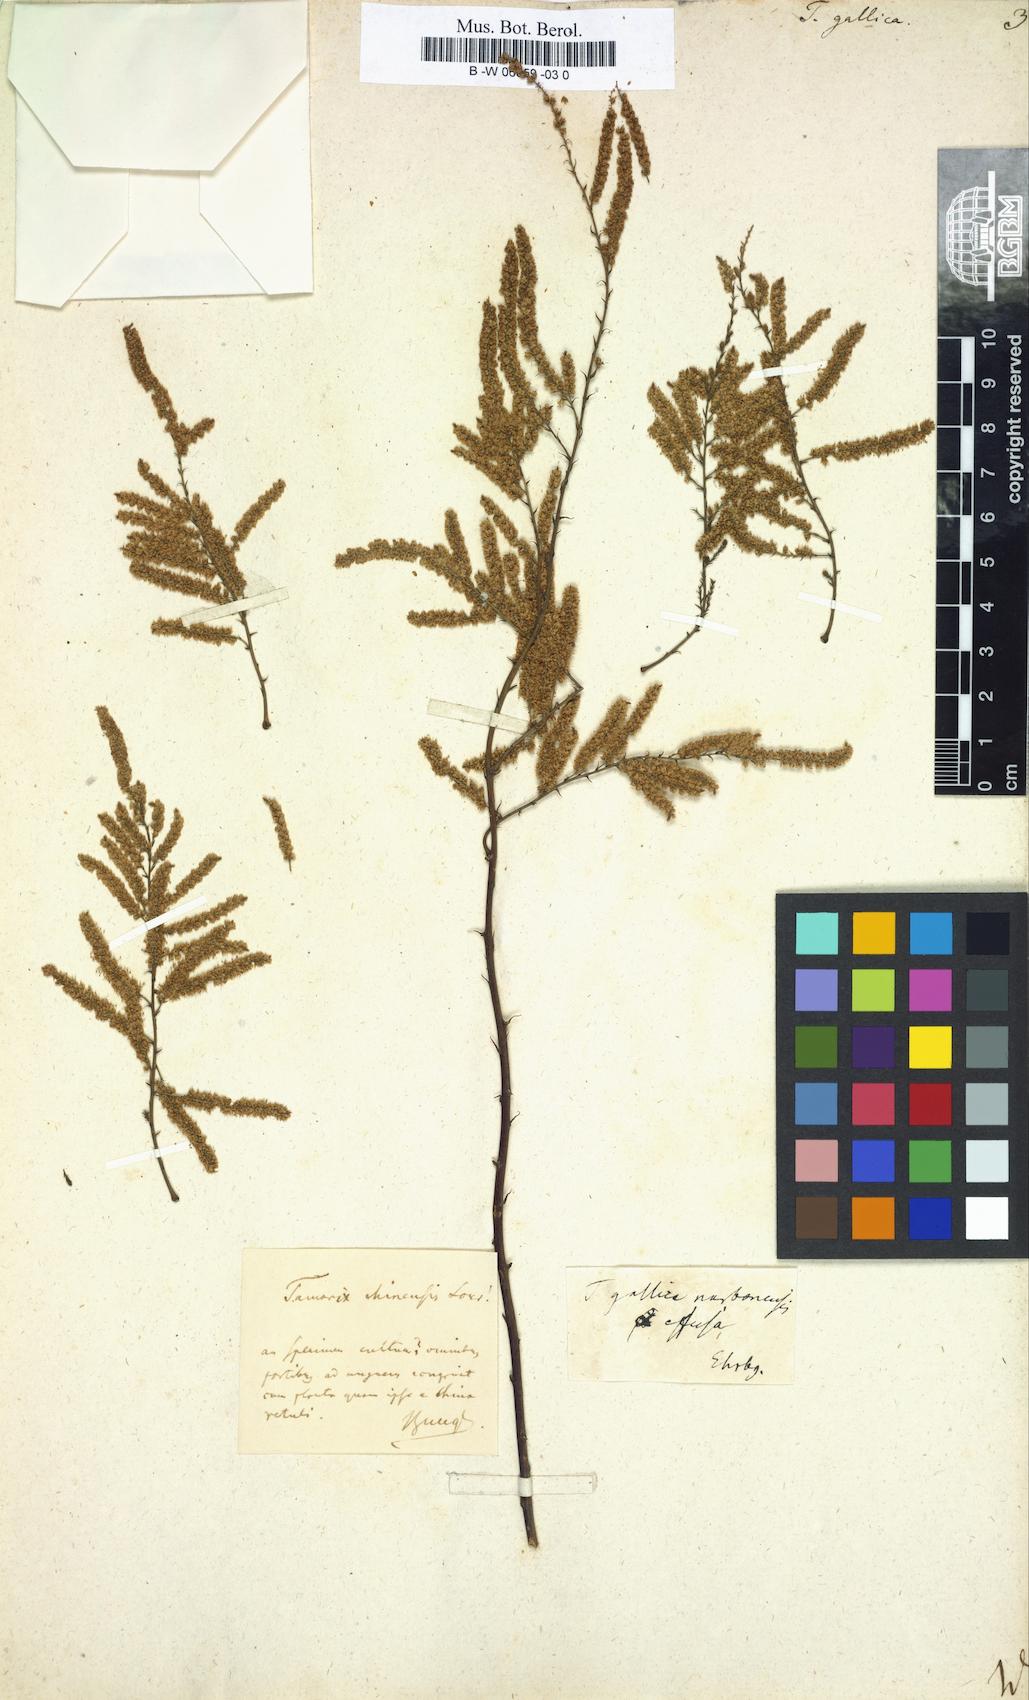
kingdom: Plantae
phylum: Tracheophyta
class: Magnoliopsida
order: Caryophyllales
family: Tamaricaceae
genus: Tamarix
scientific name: Tamarix gallica
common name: Tamarisk
